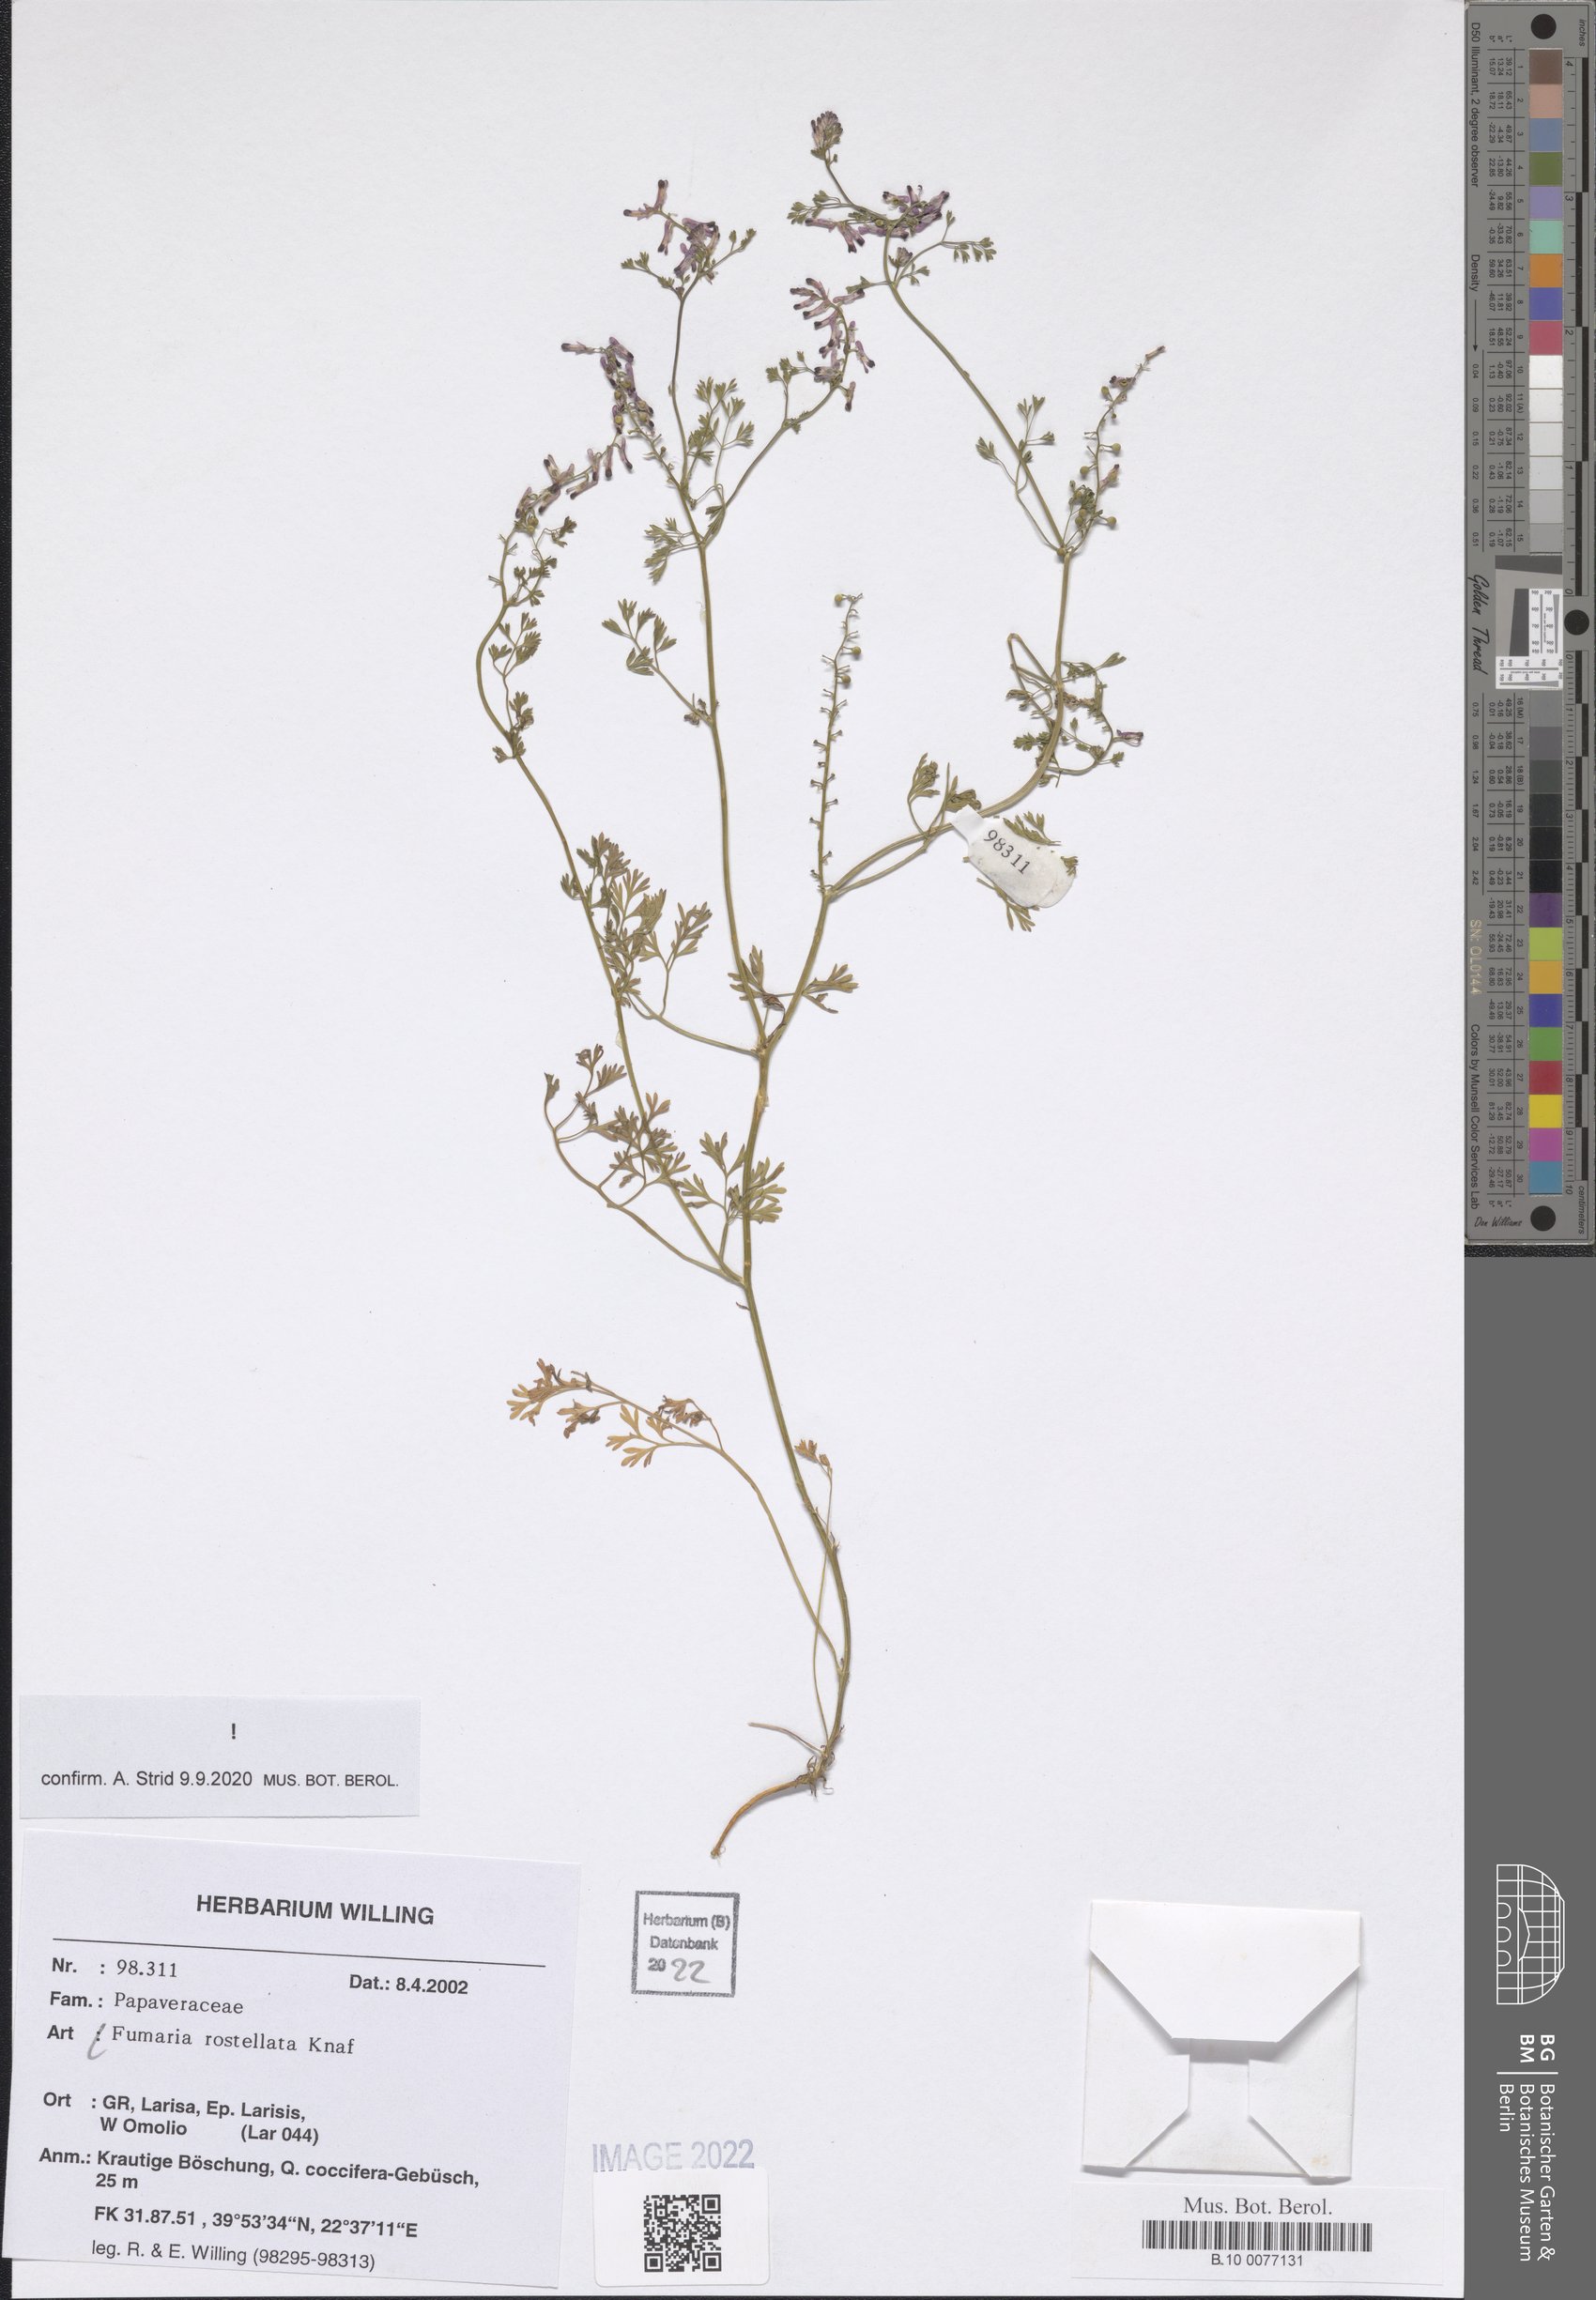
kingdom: Plantae
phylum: Tracheophyta
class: Magnoliopsida
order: Ranunculales
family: Papaveraceae
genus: Fumaria
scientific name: Fumaria rostellata
